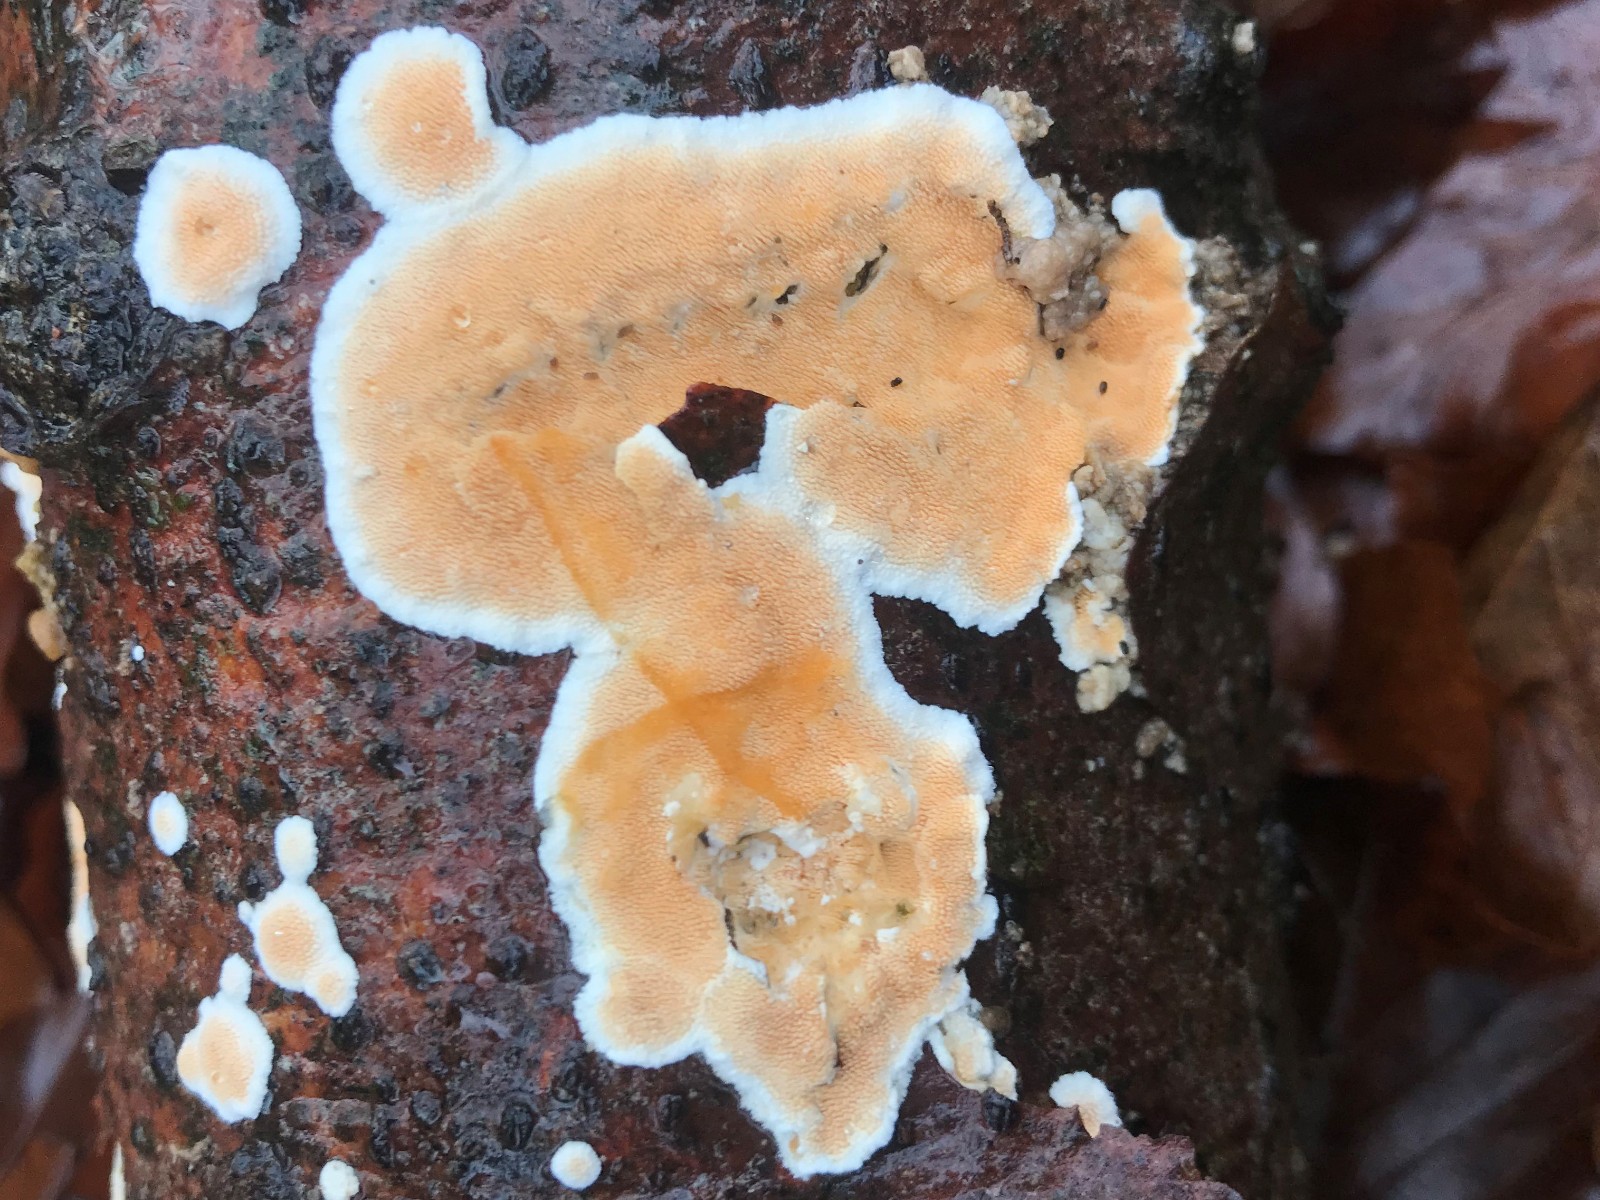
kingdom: Fungi
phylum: Basidiomycota
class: Agaricomycetes
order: Polyporales
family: Steccherinaceae
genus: Steccherinum
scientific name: Steccherinum ochraceum
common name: almindelig skønpig
